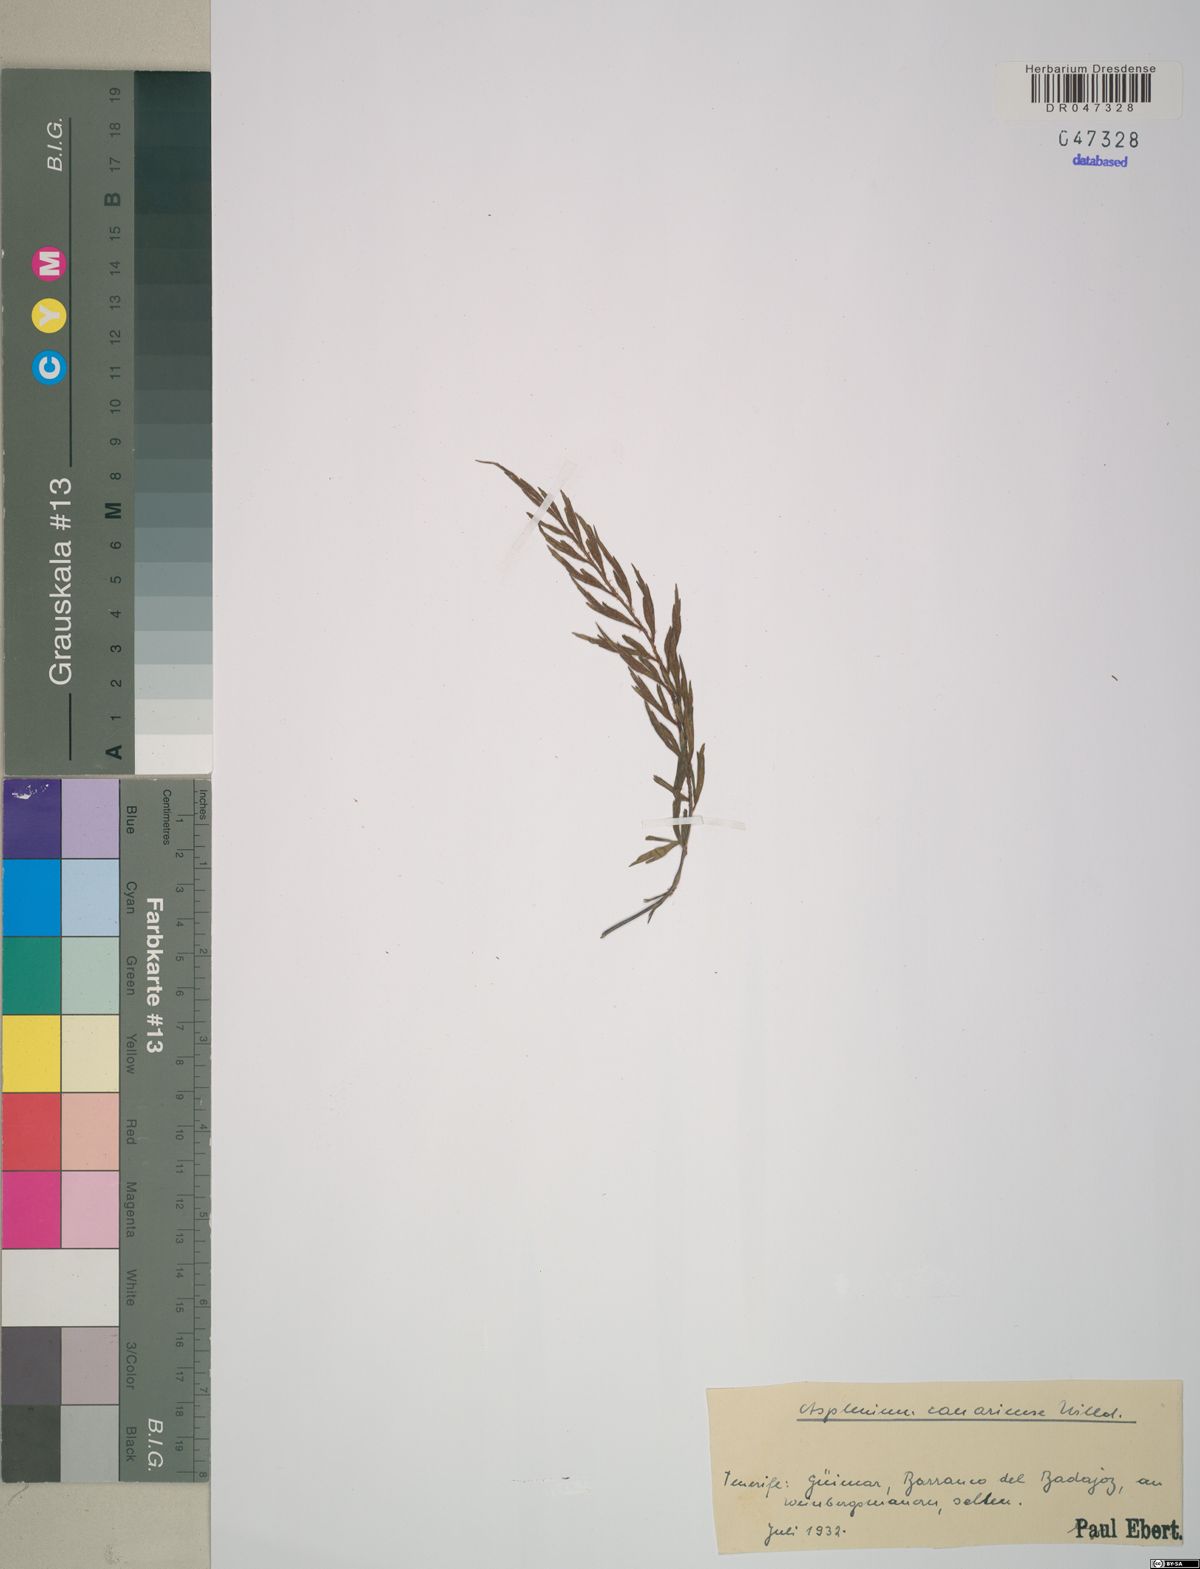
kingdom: Plantae
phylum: Tracheophyta
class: Polypodiopsida
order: Polypodiales
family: Aspleniaceae
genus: Asplenium
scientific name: Asplenium canariense
